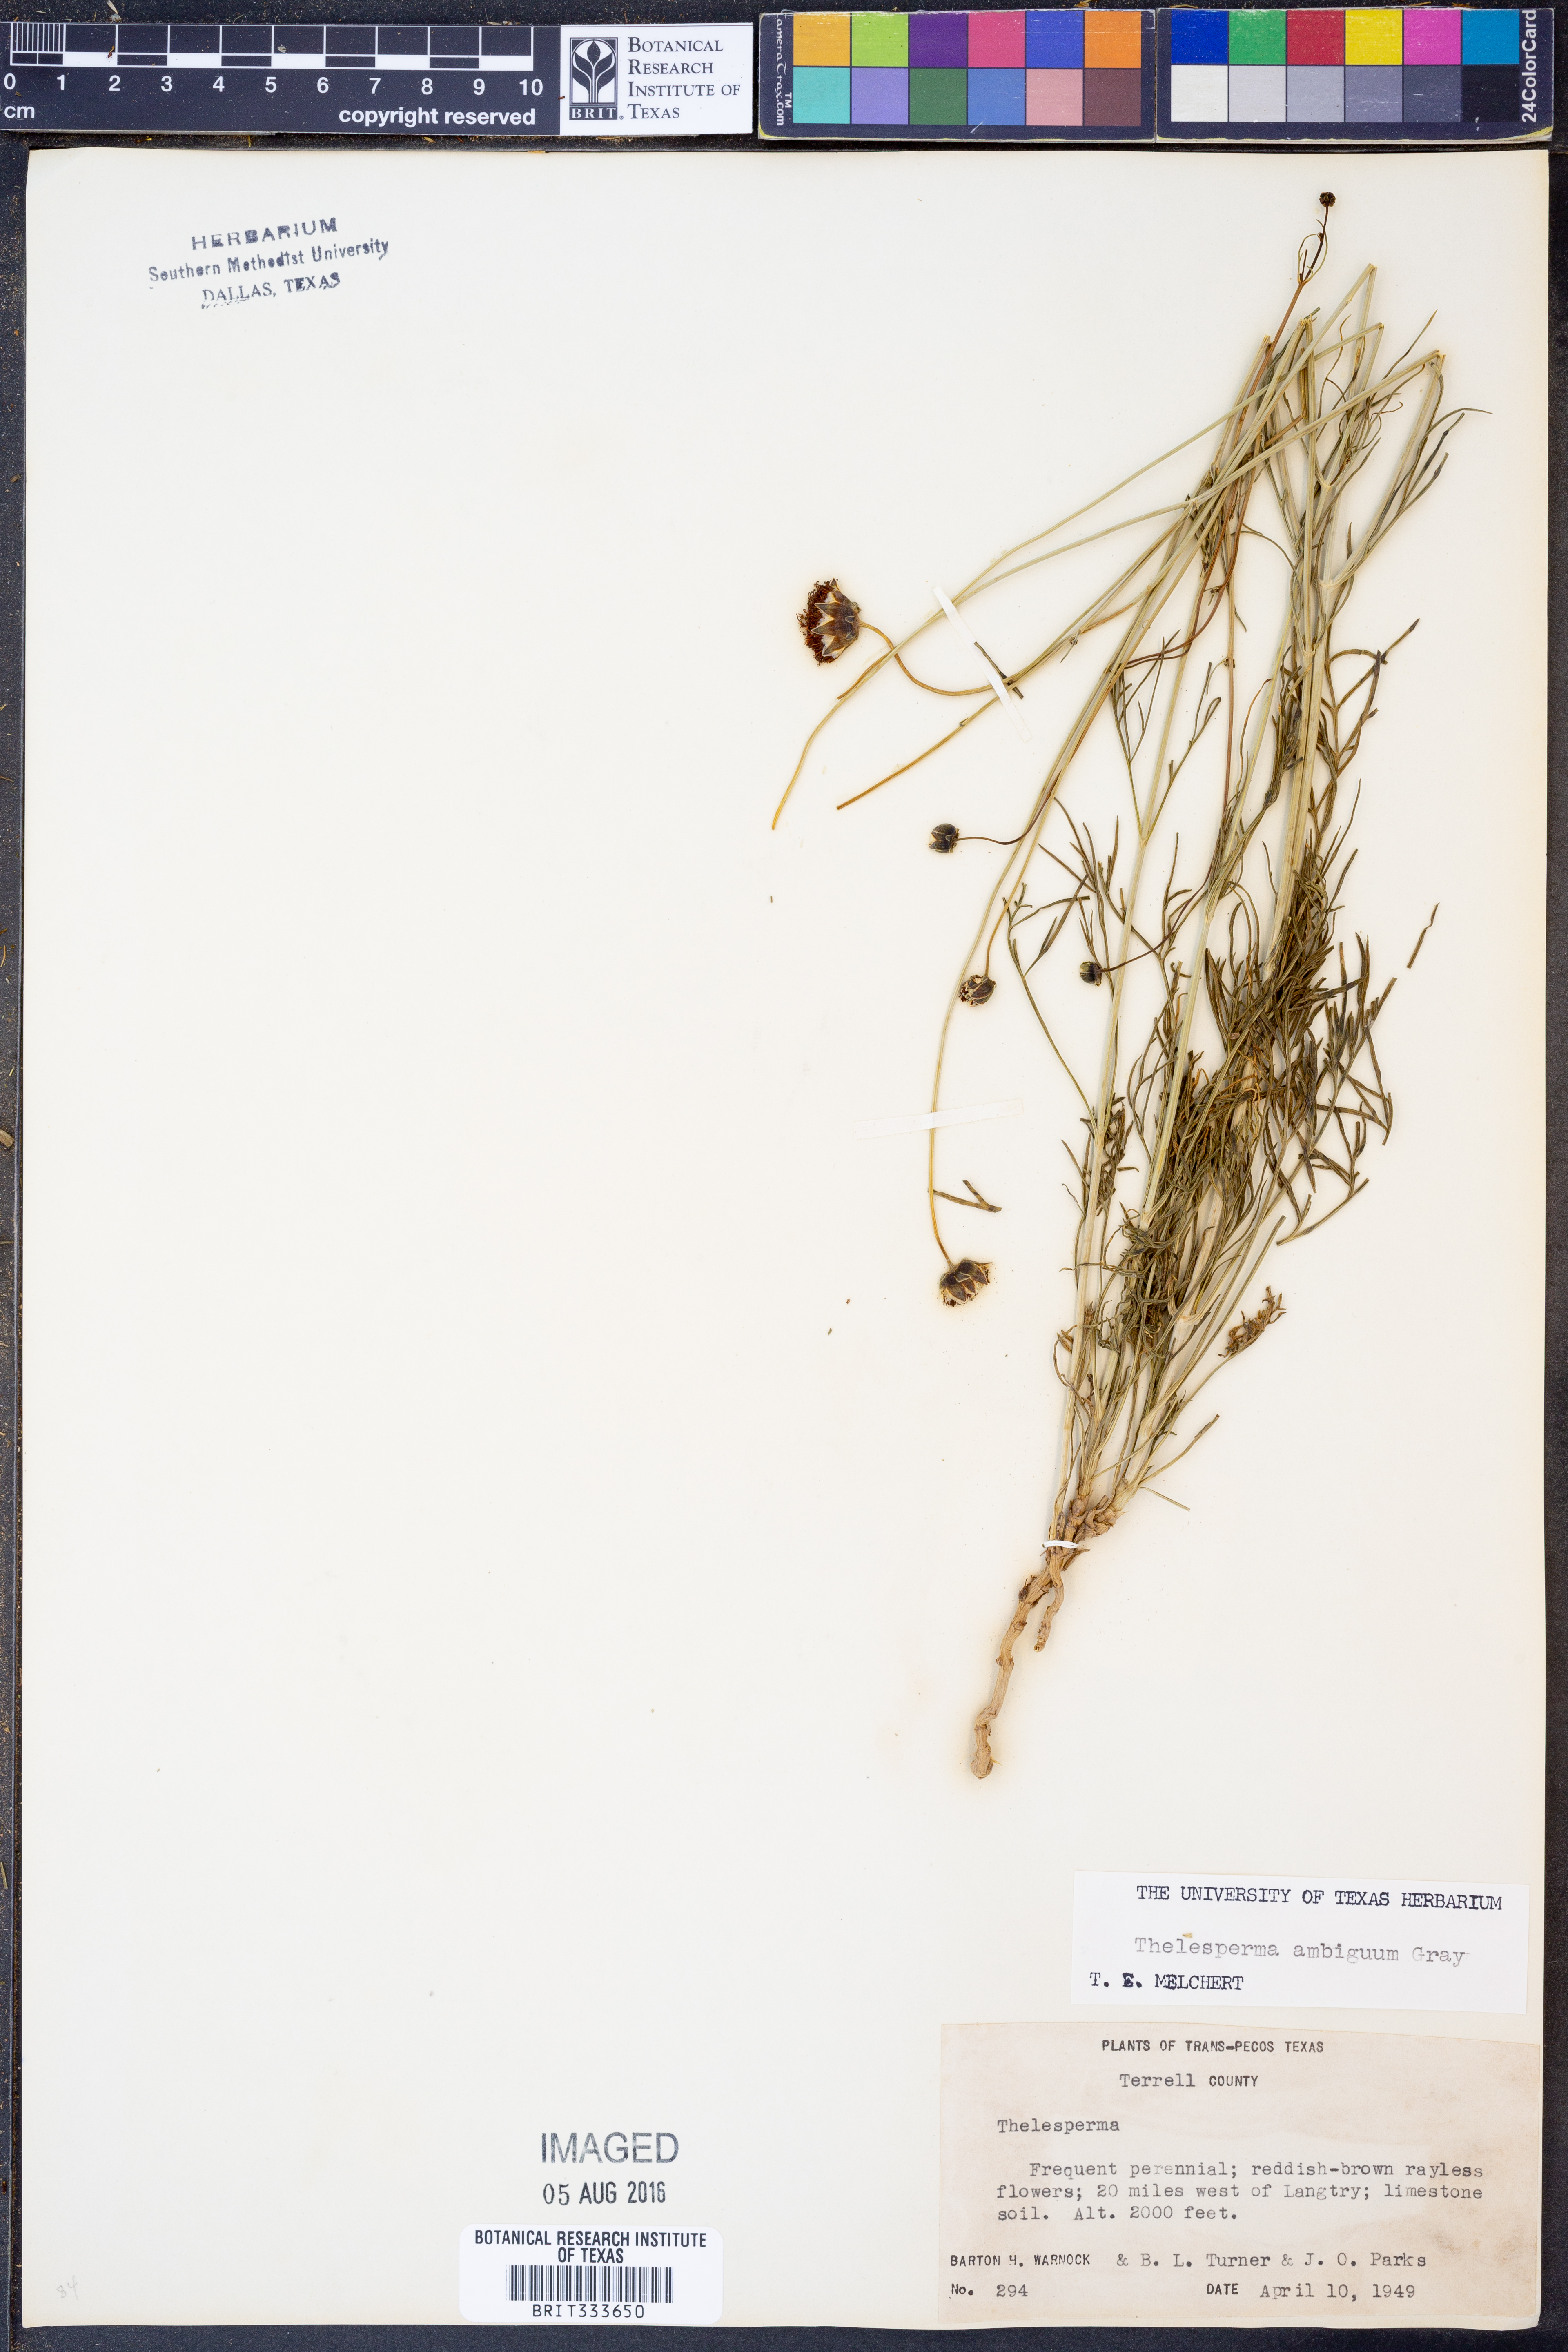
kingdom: Plantae
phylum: Tracheophyta
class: Magnoliopsida
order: Asterales
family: Asteraceae
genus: Thelesperma
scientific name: Thelesperma ambiguum
